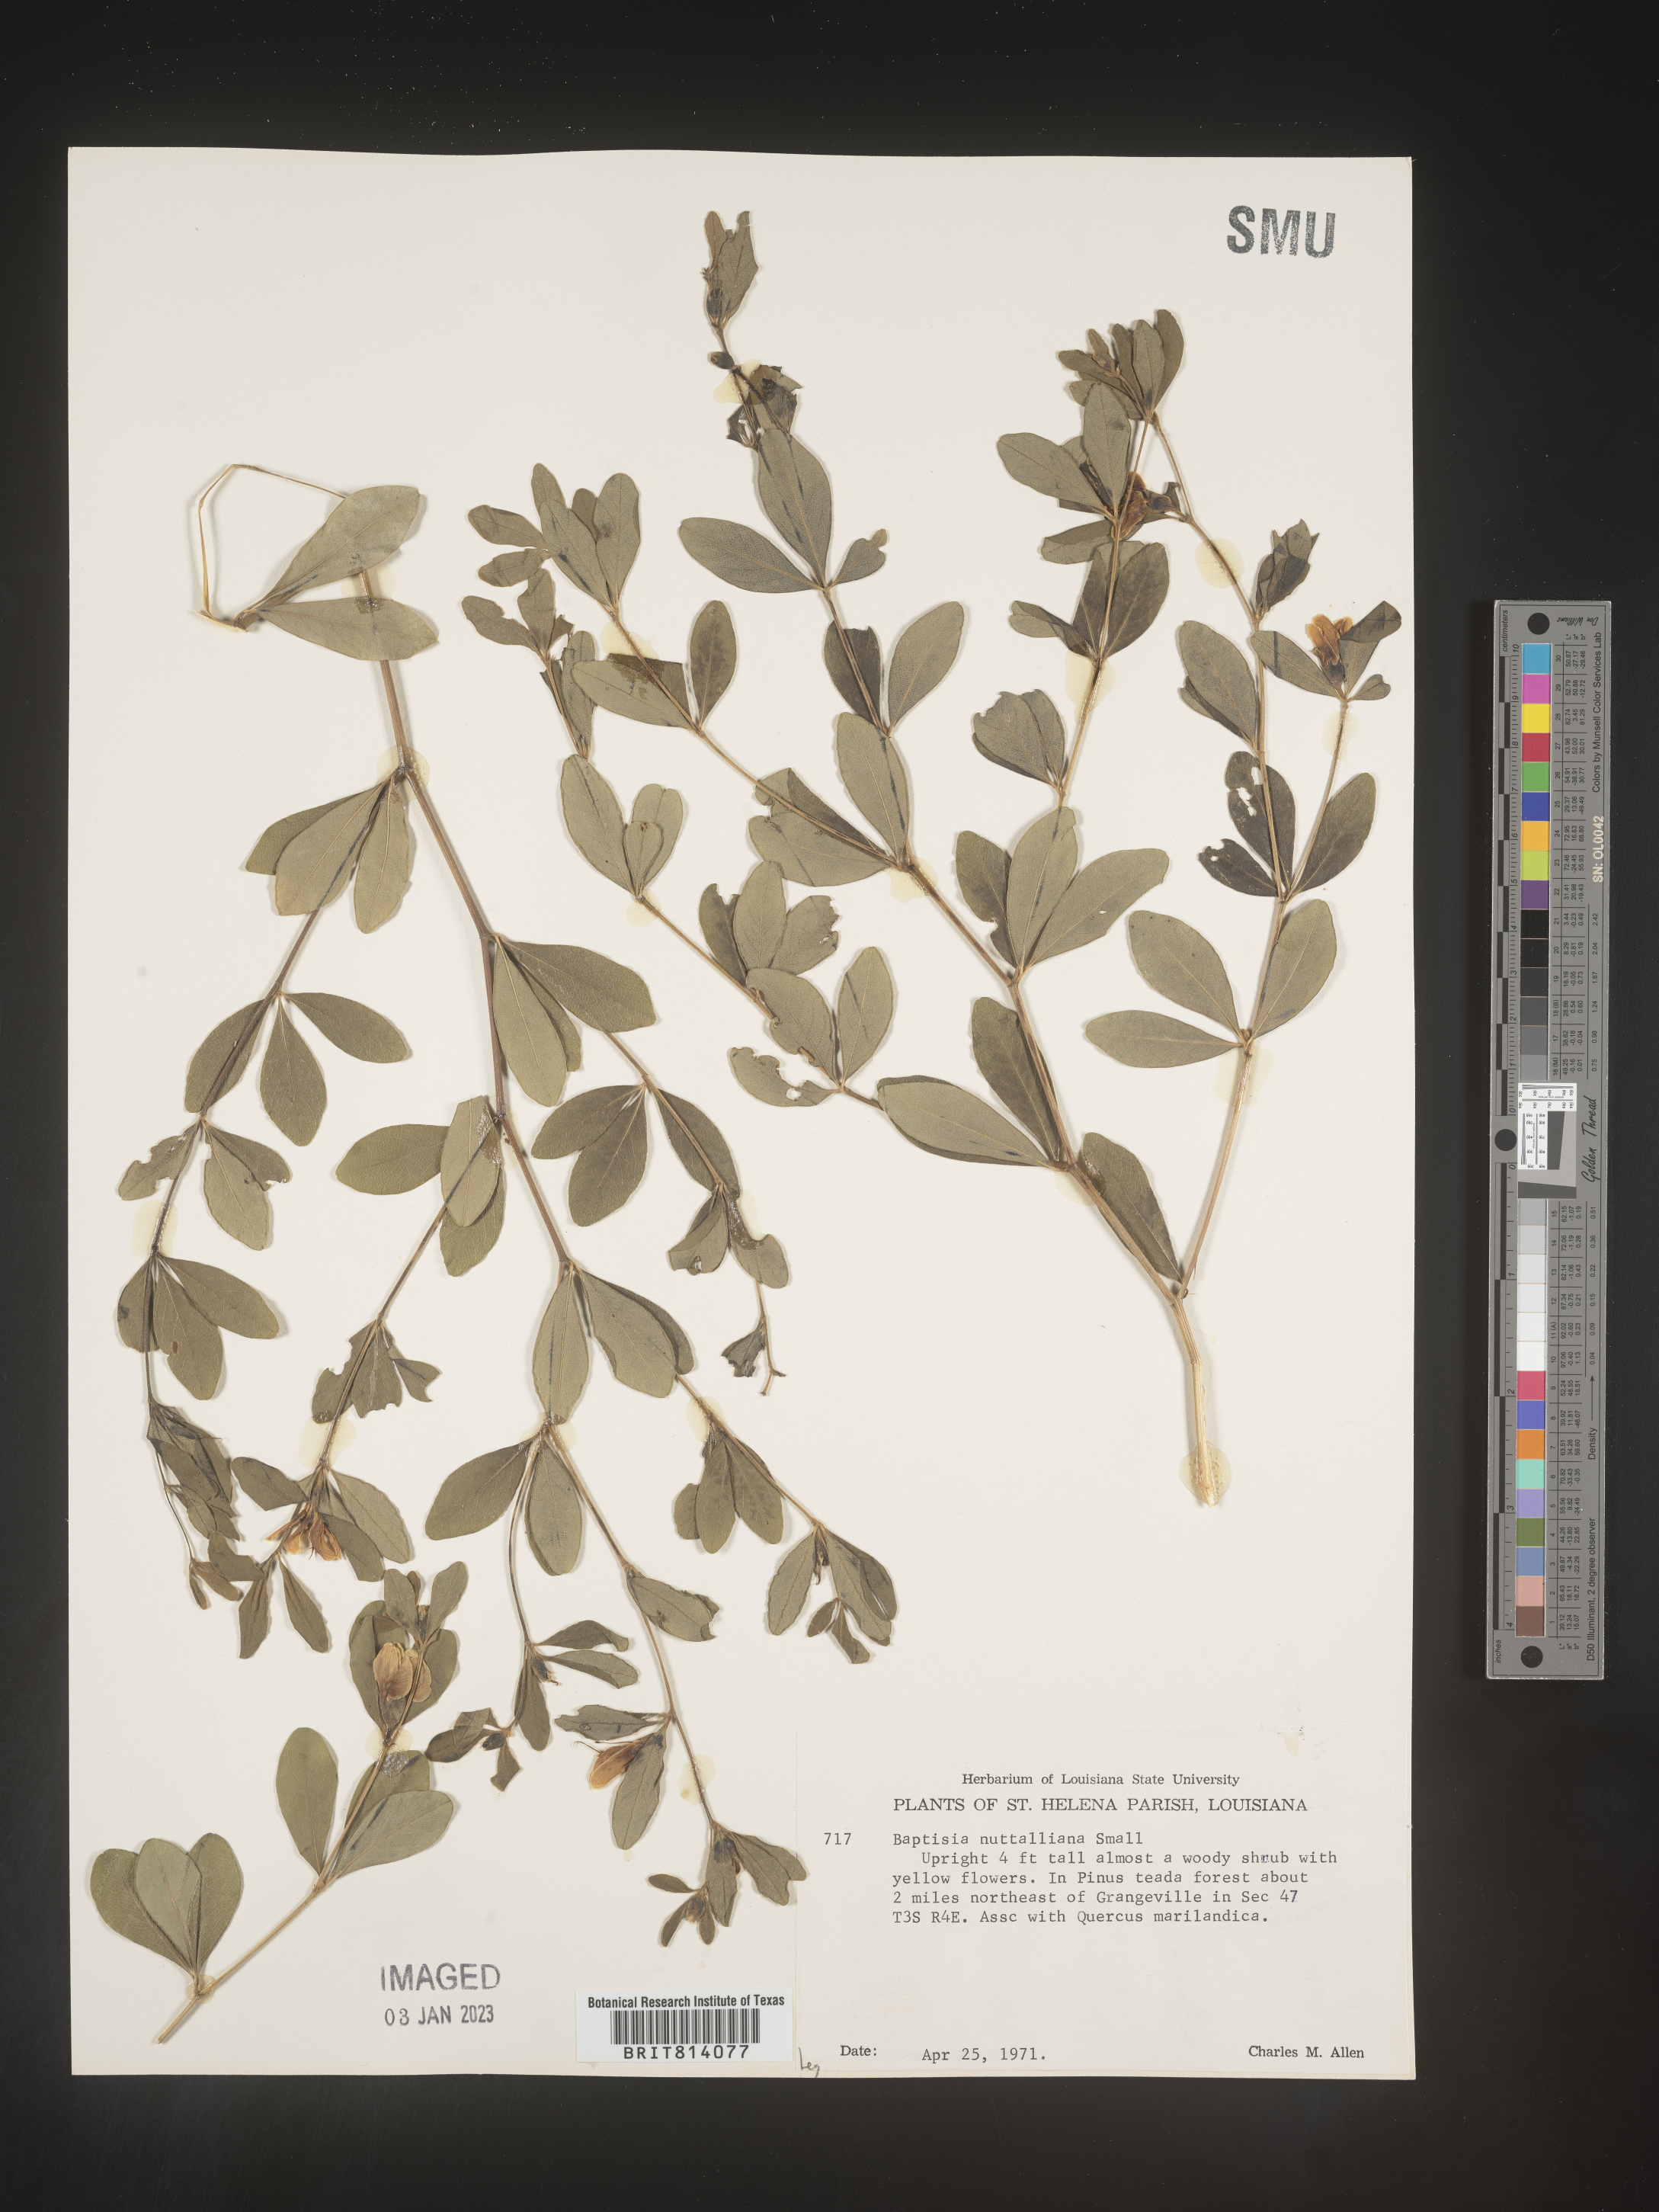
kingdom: Plantae
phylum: Tracheophyta
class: Magnoliopsida
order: Fabales
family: Fabaceae
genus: Baptisia
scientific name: Baptisia nuttalliana
